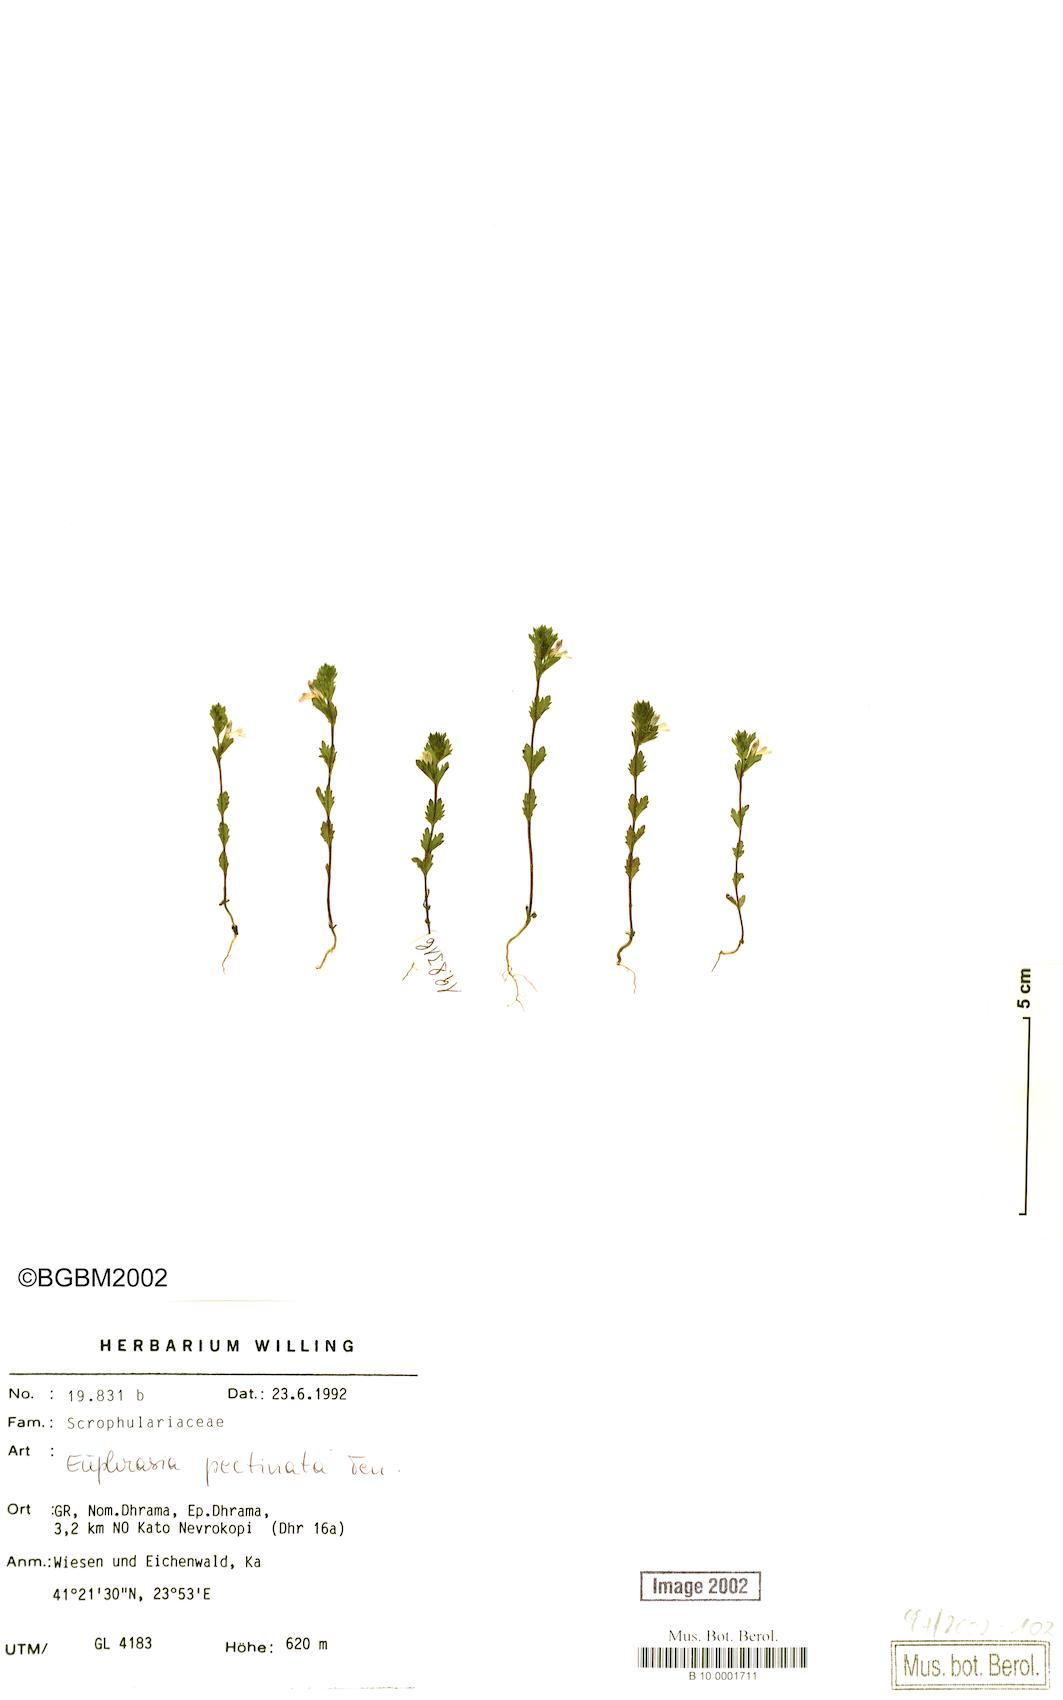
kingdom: Plantae
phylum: Tracheophyta
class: Magnoliopsida
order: Lamiales
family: Orobanchaceae
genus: Euphrasia
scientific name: Euphrasia pectinata
